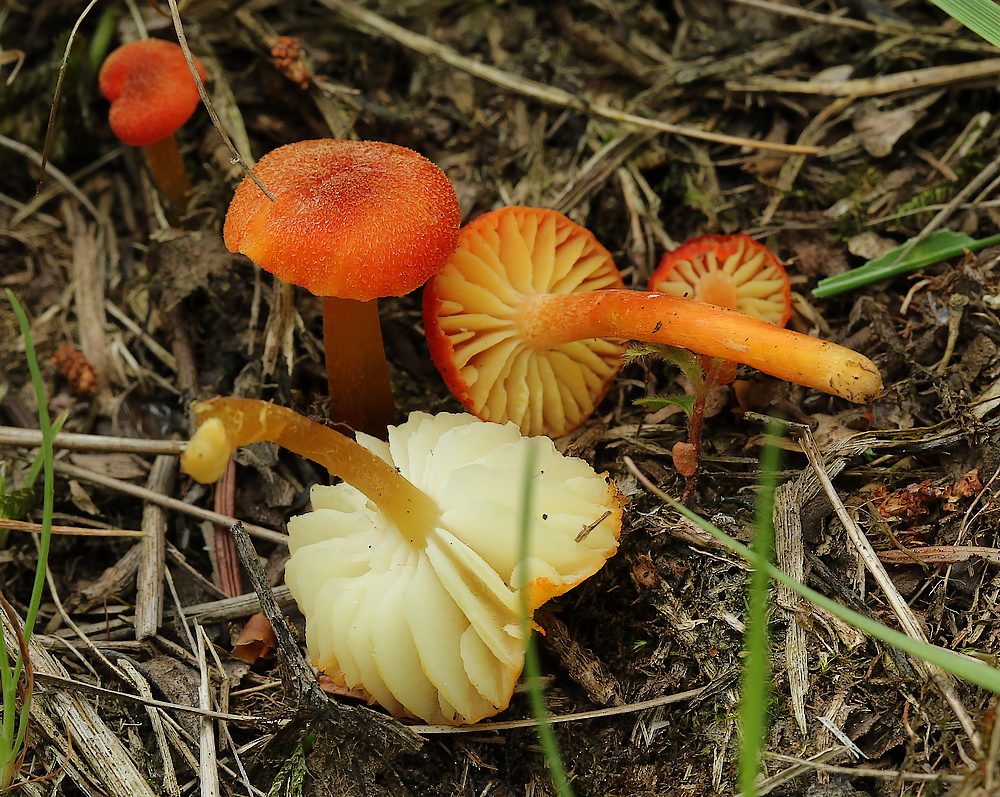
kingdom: Fungi
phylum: Basidiomycota
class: Agaricomycetes
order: Agaricales
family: Hygrophoraceae
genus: Hygrocybe
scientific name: Hygrocybe helobia
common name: hvidløgs-vokshat
